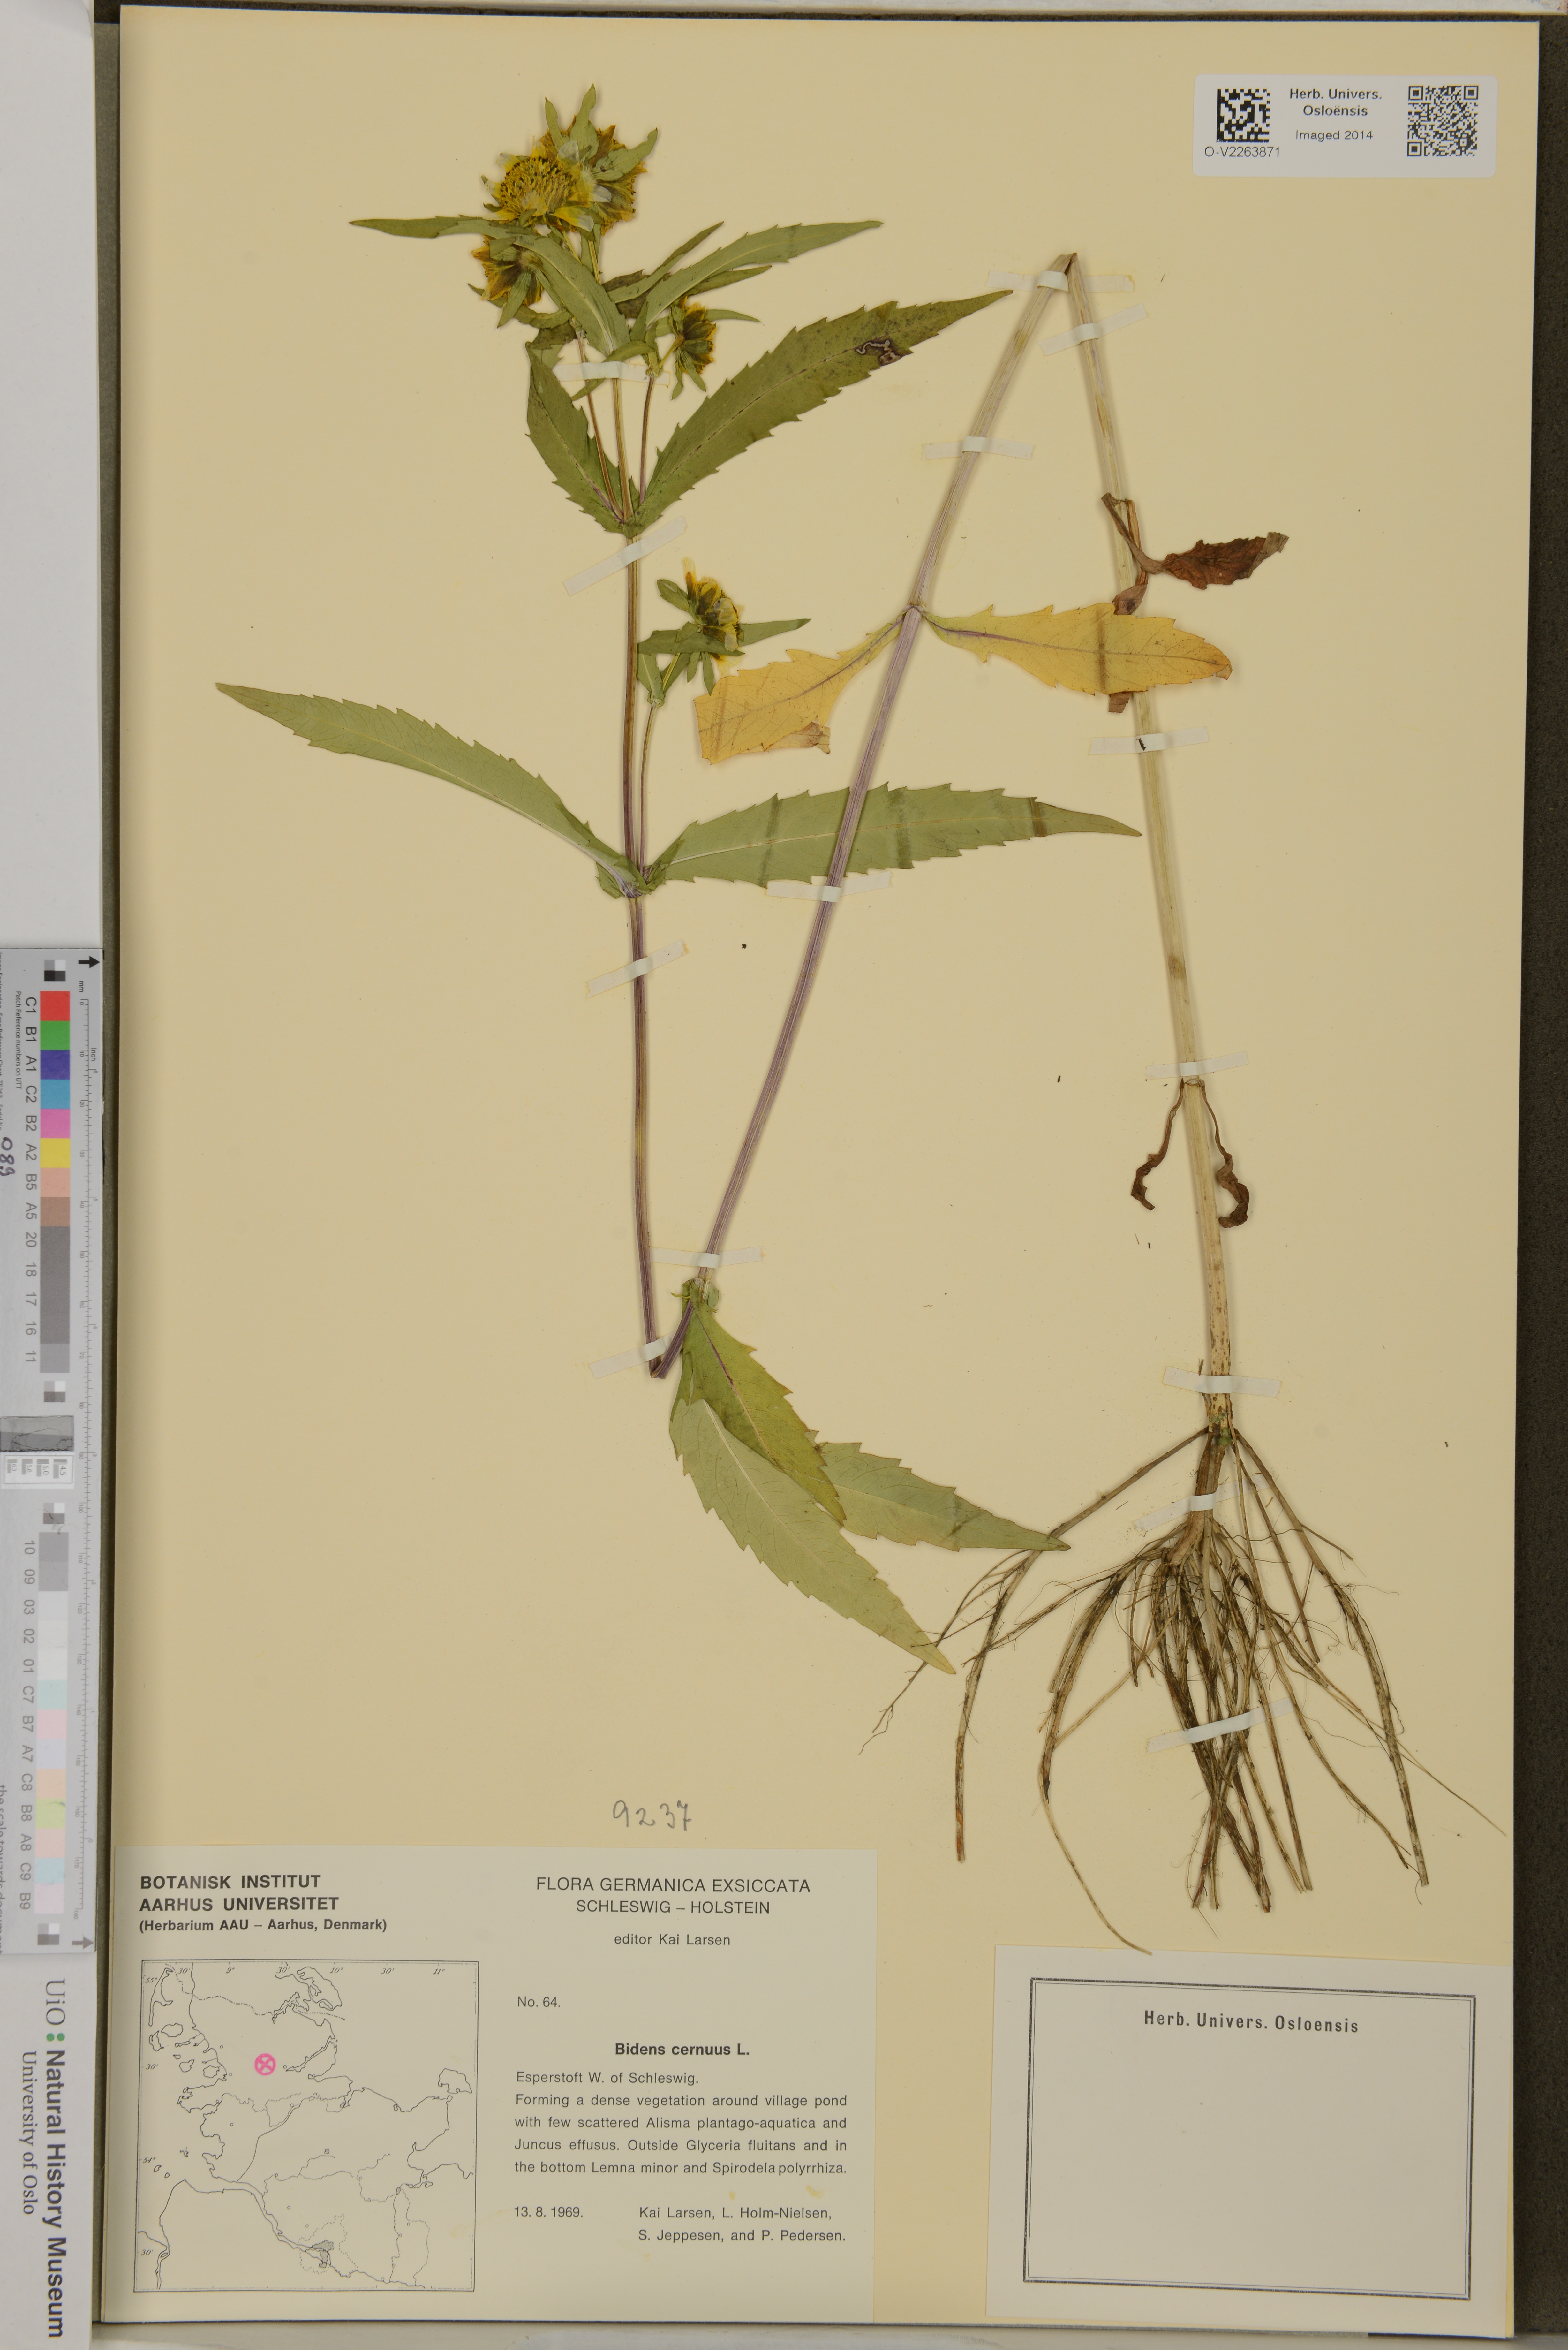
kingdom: Plantae
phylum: Tracheophyta
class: Magnoliopsida
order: Asterales
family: Asteraceae
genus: Bidens
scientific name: Bidens cernua
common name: Nodding bur-marigold
